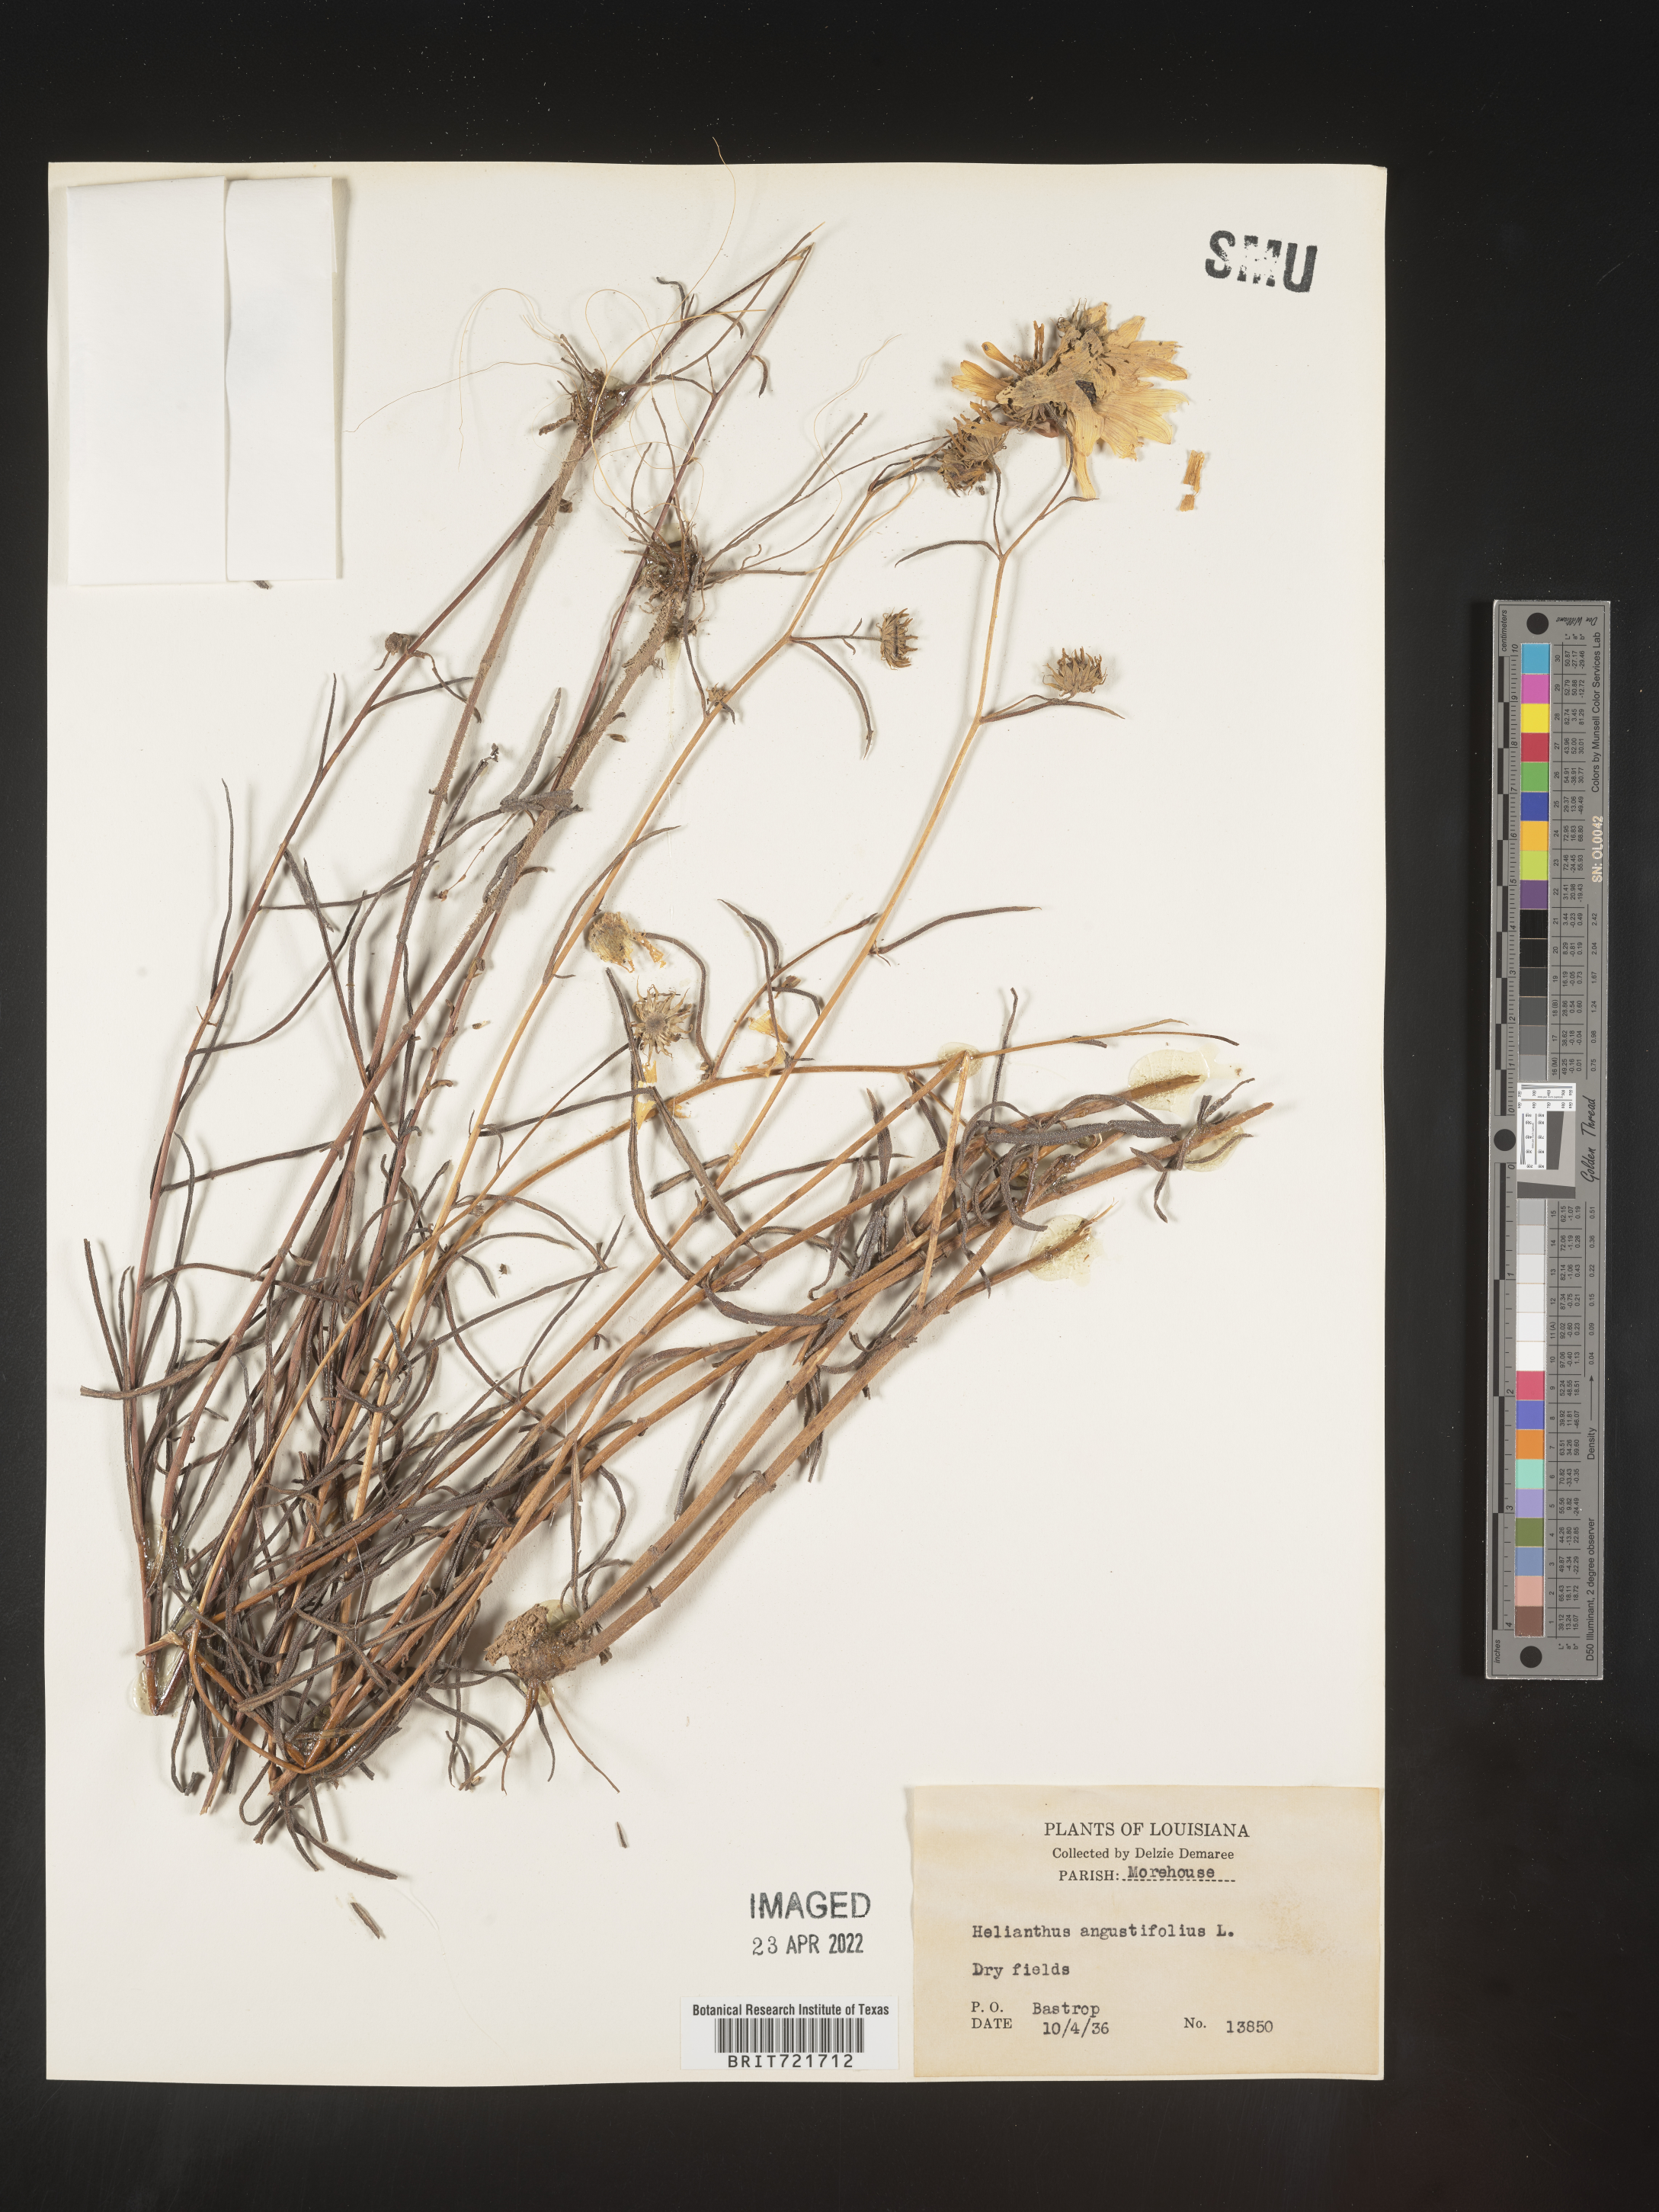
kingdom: Plantae
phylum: Tracheophyta
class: Magnoliopsida
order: Asterales
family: Asteraceae
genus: Helianthus
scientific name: Helianthus angustifolius
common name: Swamp sunflower
